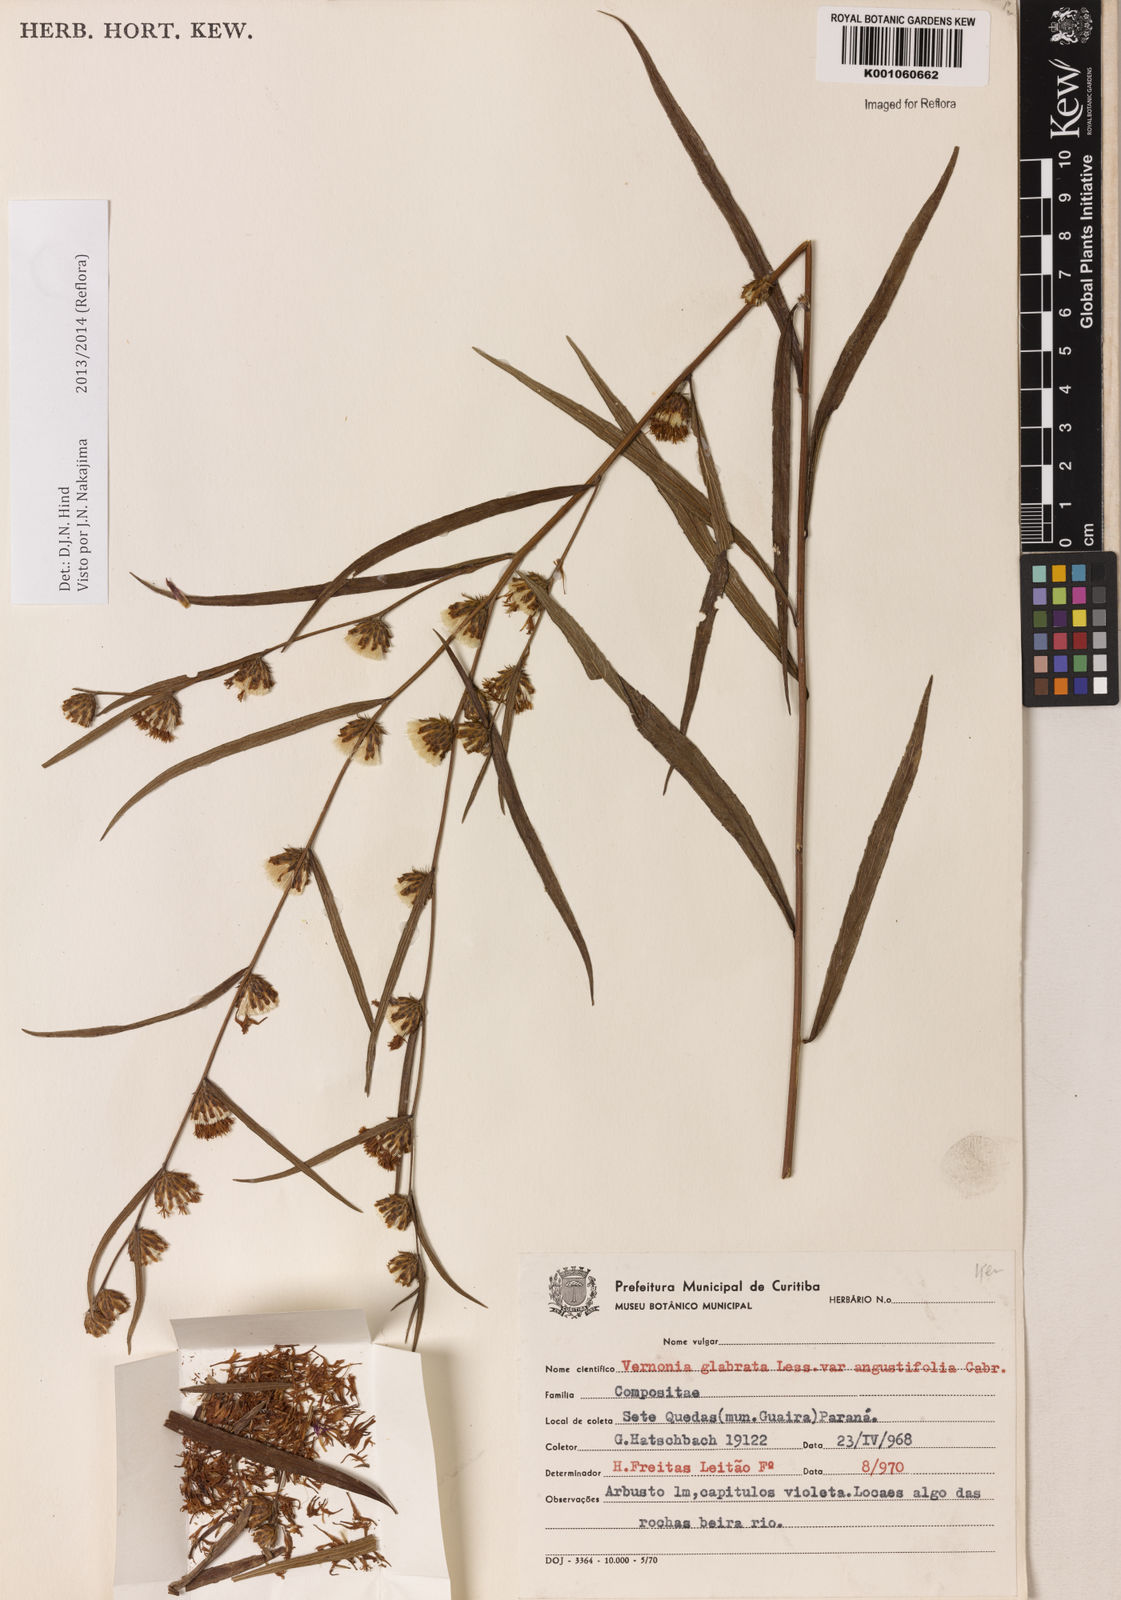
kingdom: Plantae
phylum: Tracheophyta
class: Magnoliopsida
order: Asterales
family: Asteraceae
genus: Lessingianthus
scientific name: Lessingianthus glabratus
